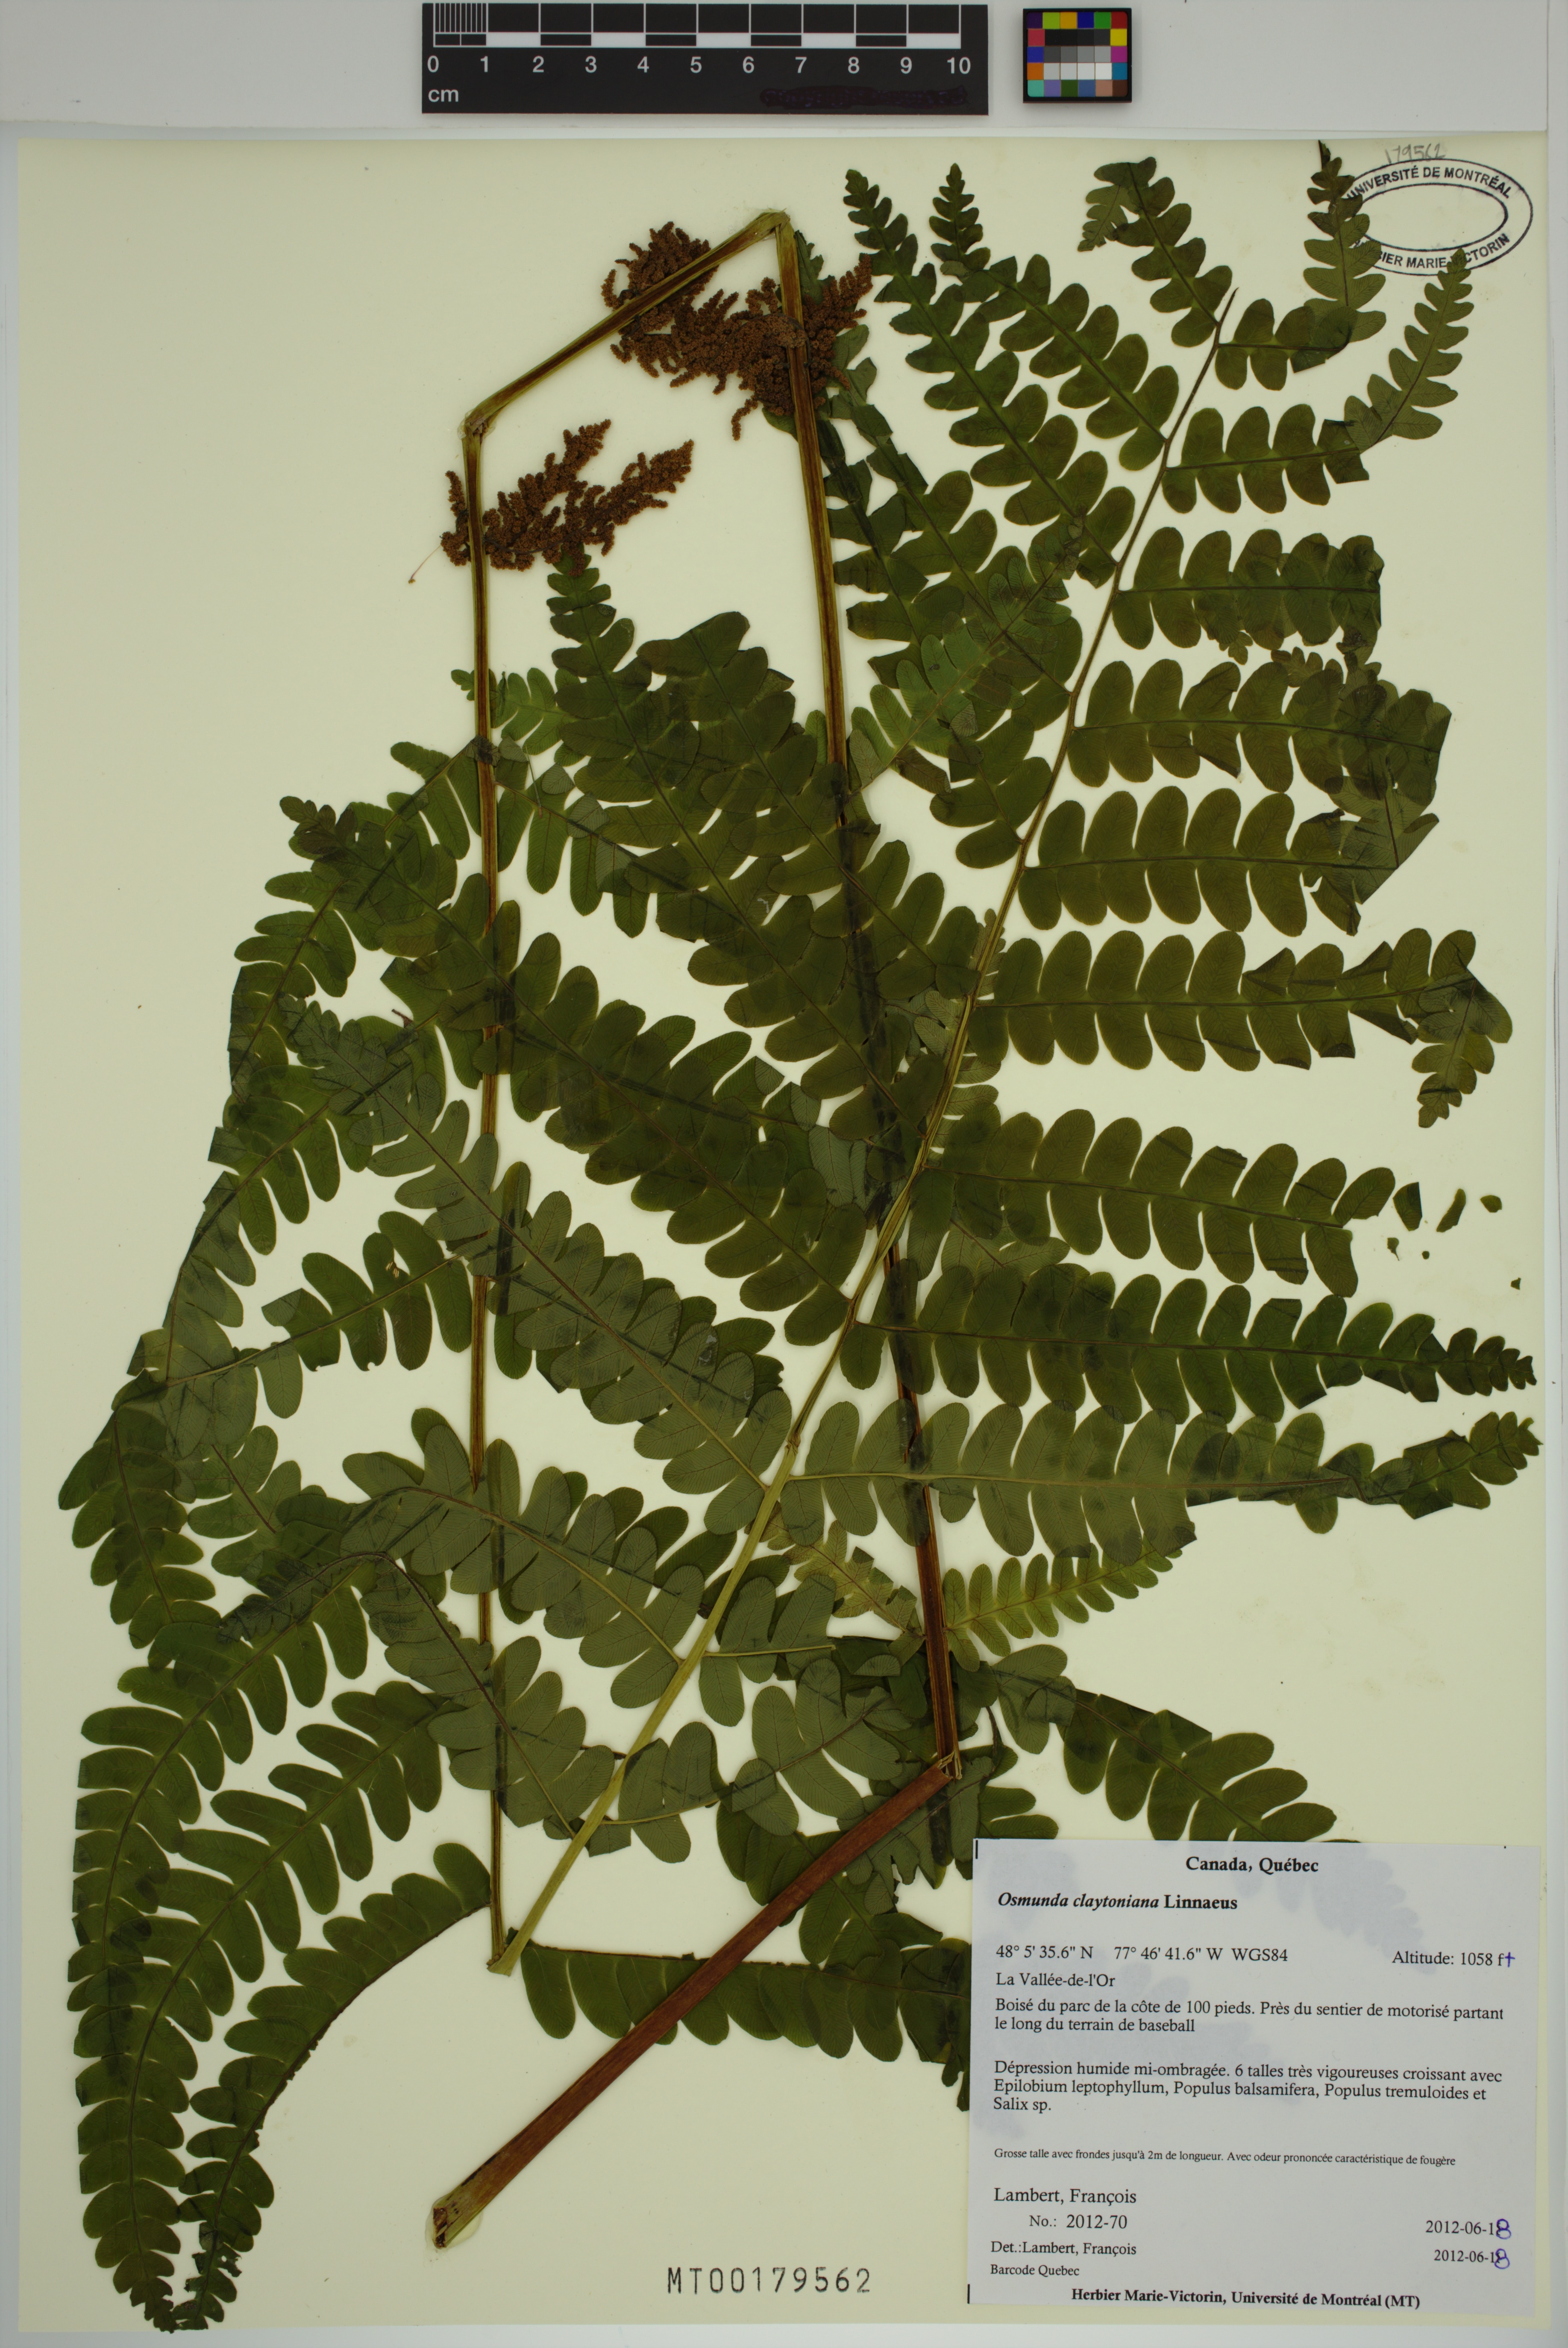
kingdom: Plantae
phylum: Tracheophyta
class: Polypodiopsida
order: Osmundales
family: Osmundaceae
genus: Claytosmunda
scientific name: Claytosmunda claytoniana
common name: Clayton's fern
